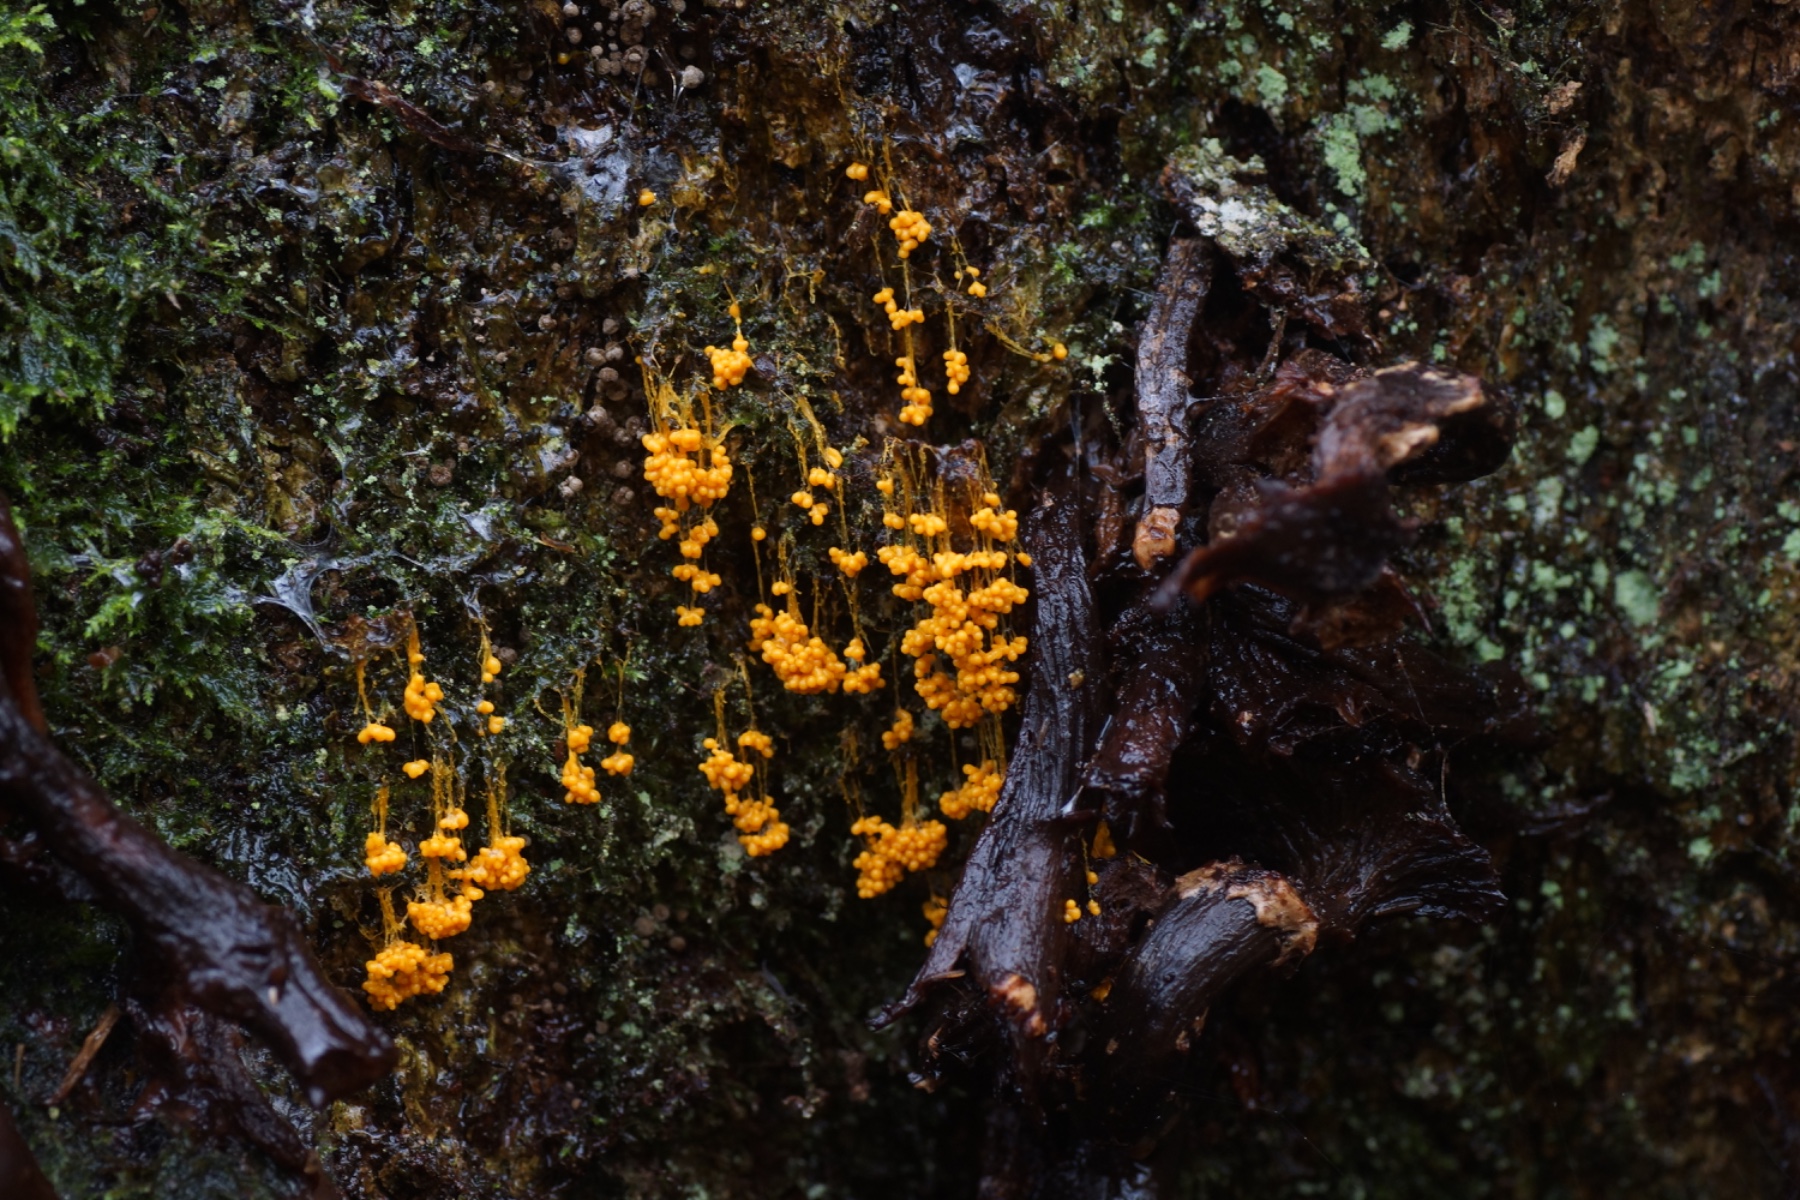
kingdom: Protozoa
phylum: Mycetozoa
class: Myxomycetes
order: Physarales
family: Physaraceae
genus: Badhamia
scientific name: Badhamia utricularis
